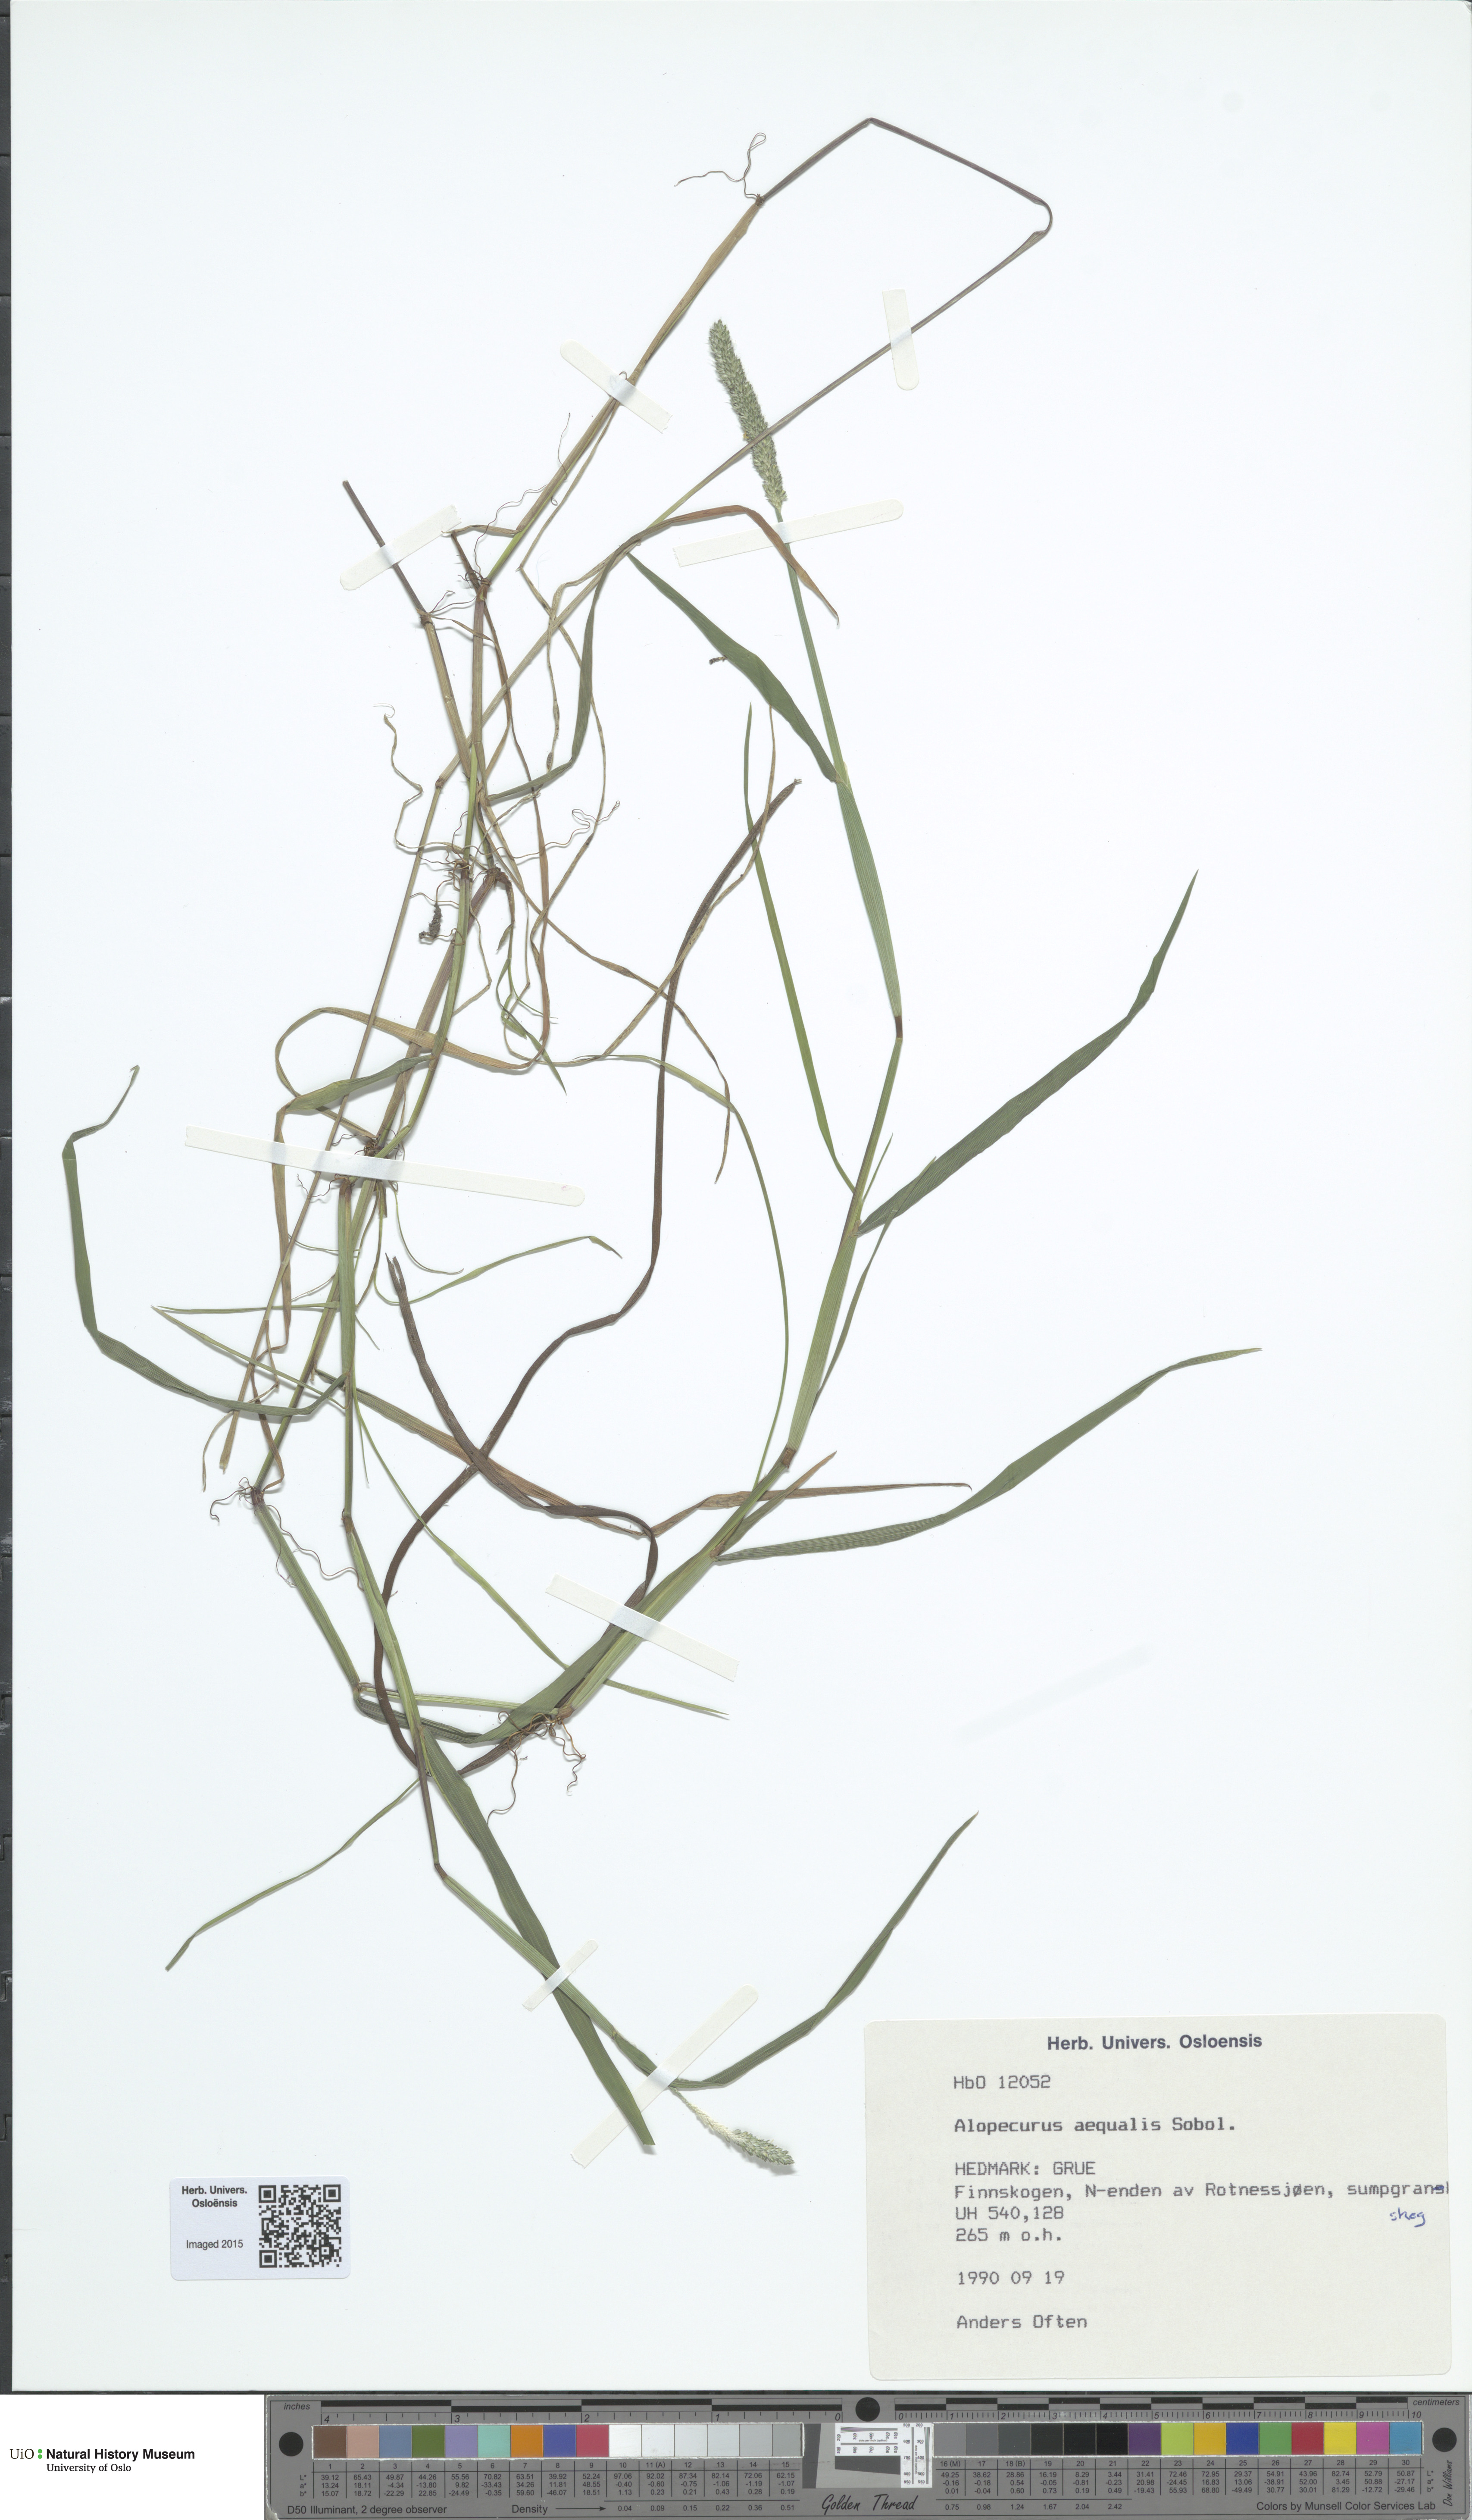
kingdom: Plantae
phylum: Tracheophyta
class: Liliopsida
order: Poales
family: Poaceae
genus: Alopecurus
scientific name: Alopecurus aequalis
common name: Orange foxtail
